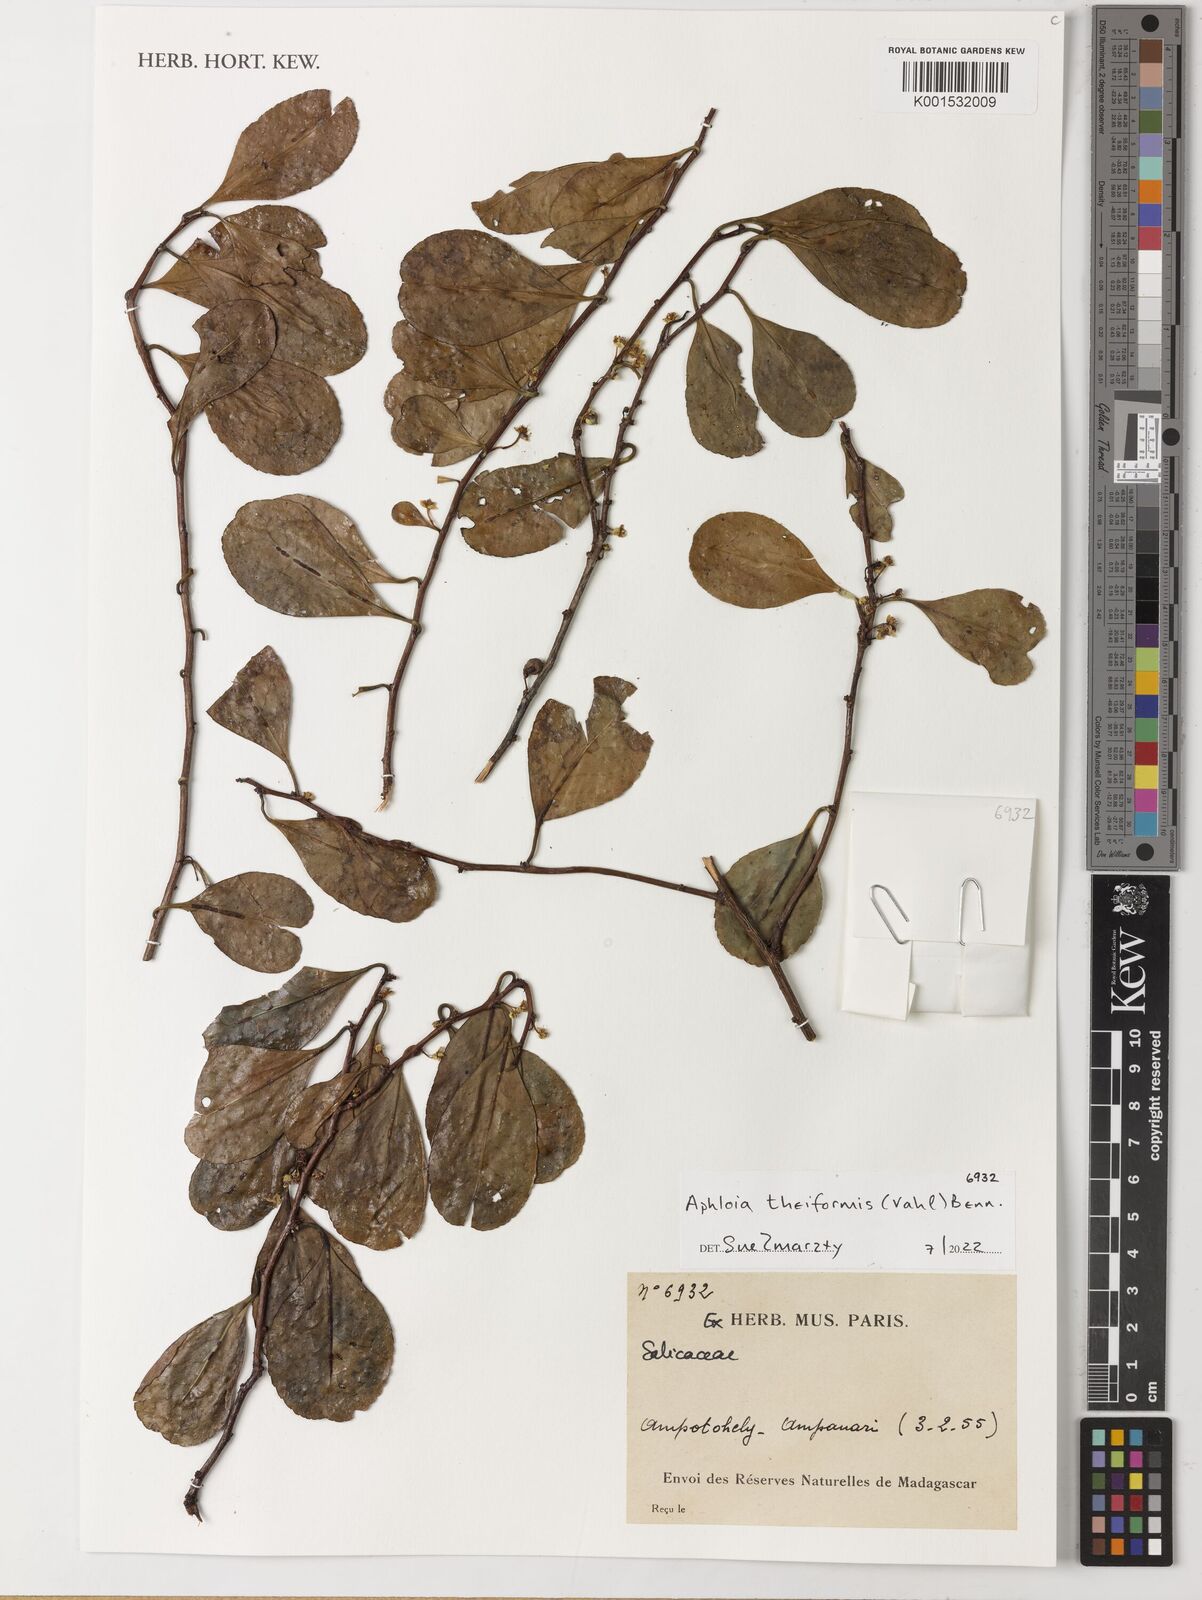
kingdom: Plantae
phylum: Tracheophyta
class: Magnoliopsida
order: Malpighiales
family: Salicaceae
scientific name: Salicaceae
